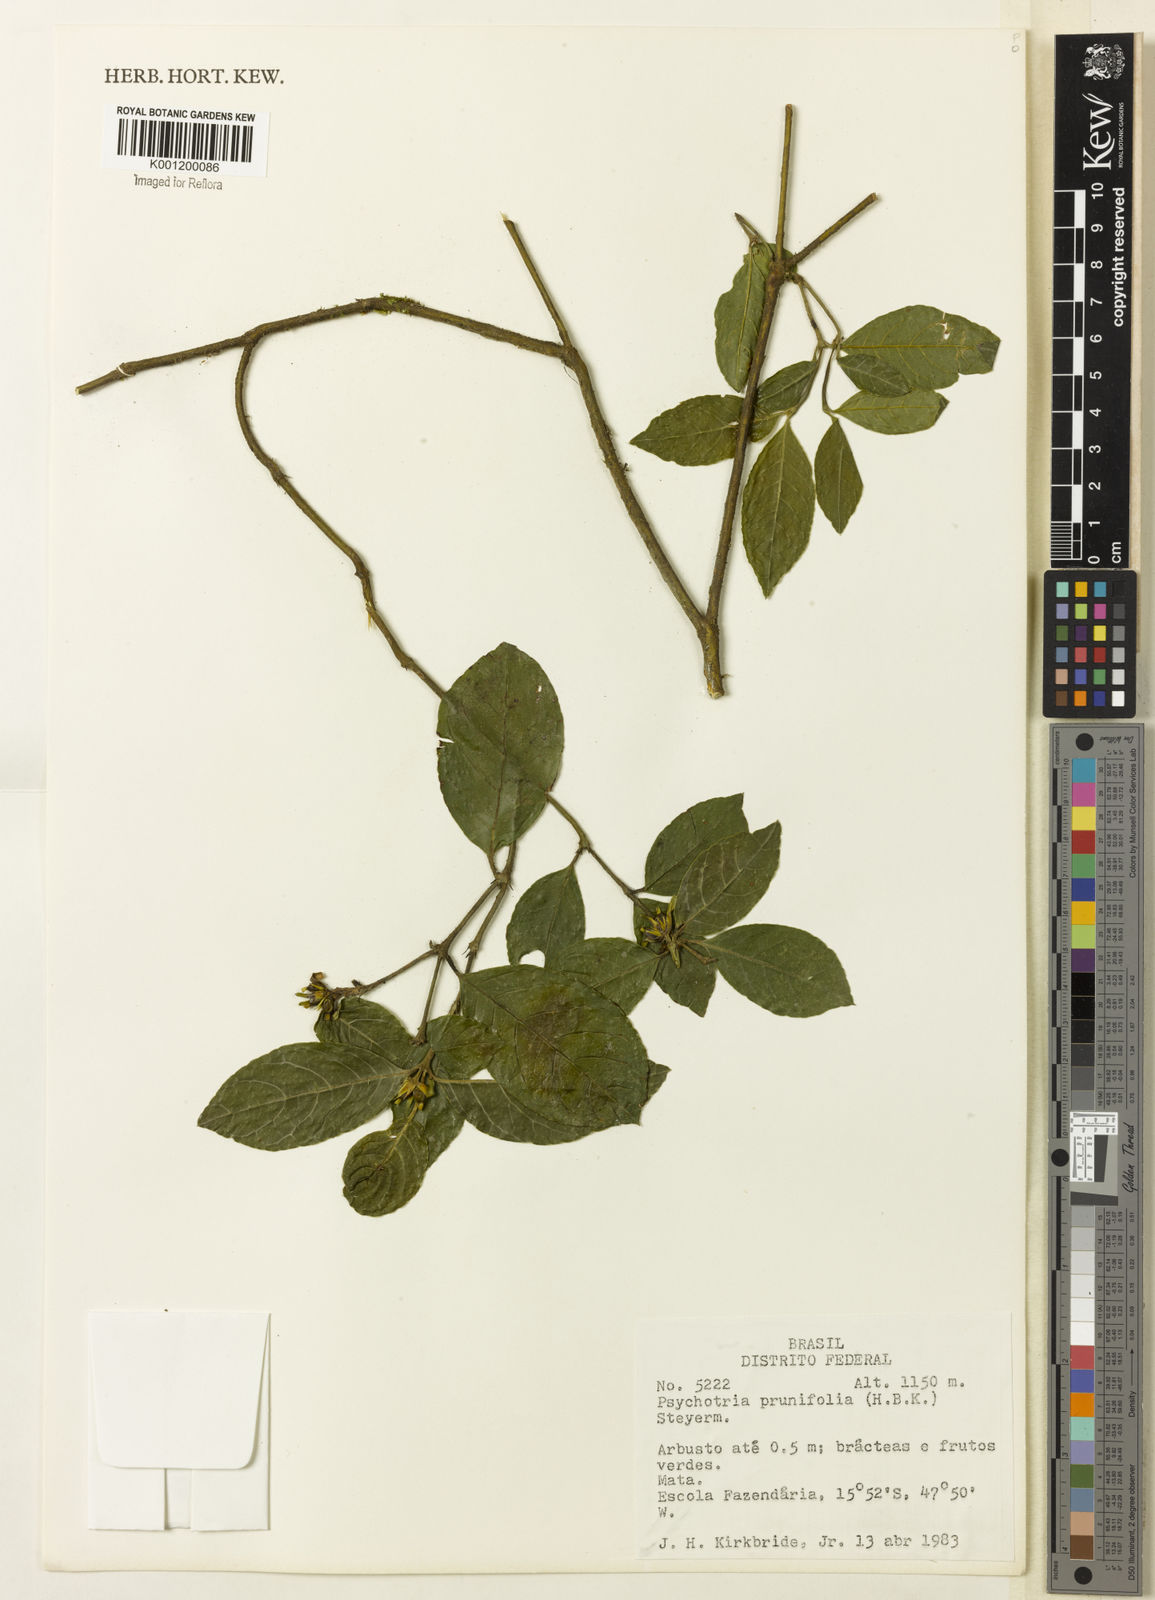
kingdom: Plantae
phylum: Tracheophyta
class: Magnoliopsida
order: Gentianales
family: Rubiaceae
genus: Palicourea
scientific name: Palicourea prunifolia
